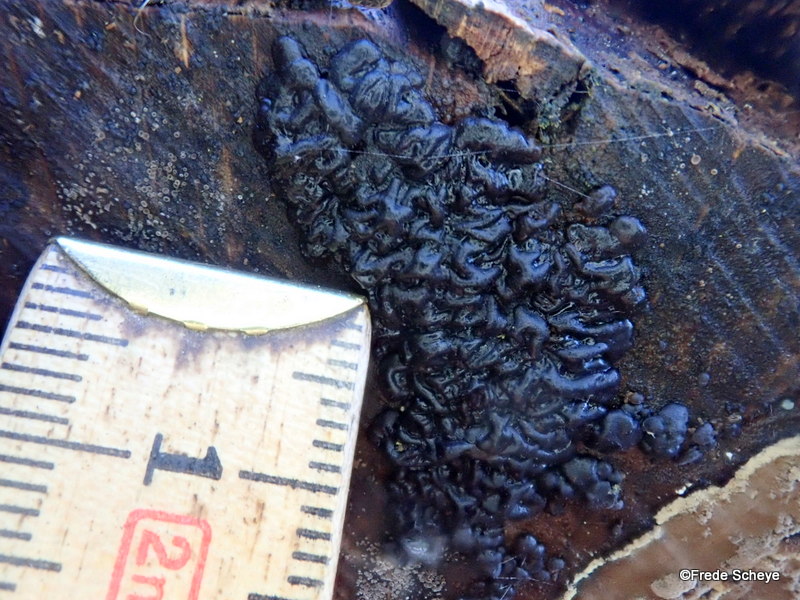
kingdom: Fungi
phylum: Basidiomycota
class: Agaricomycetes
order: Auriculariales
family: Auriculariaceae
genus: Exidia
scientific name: Exidia nigricans
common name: almindelig bævretop
